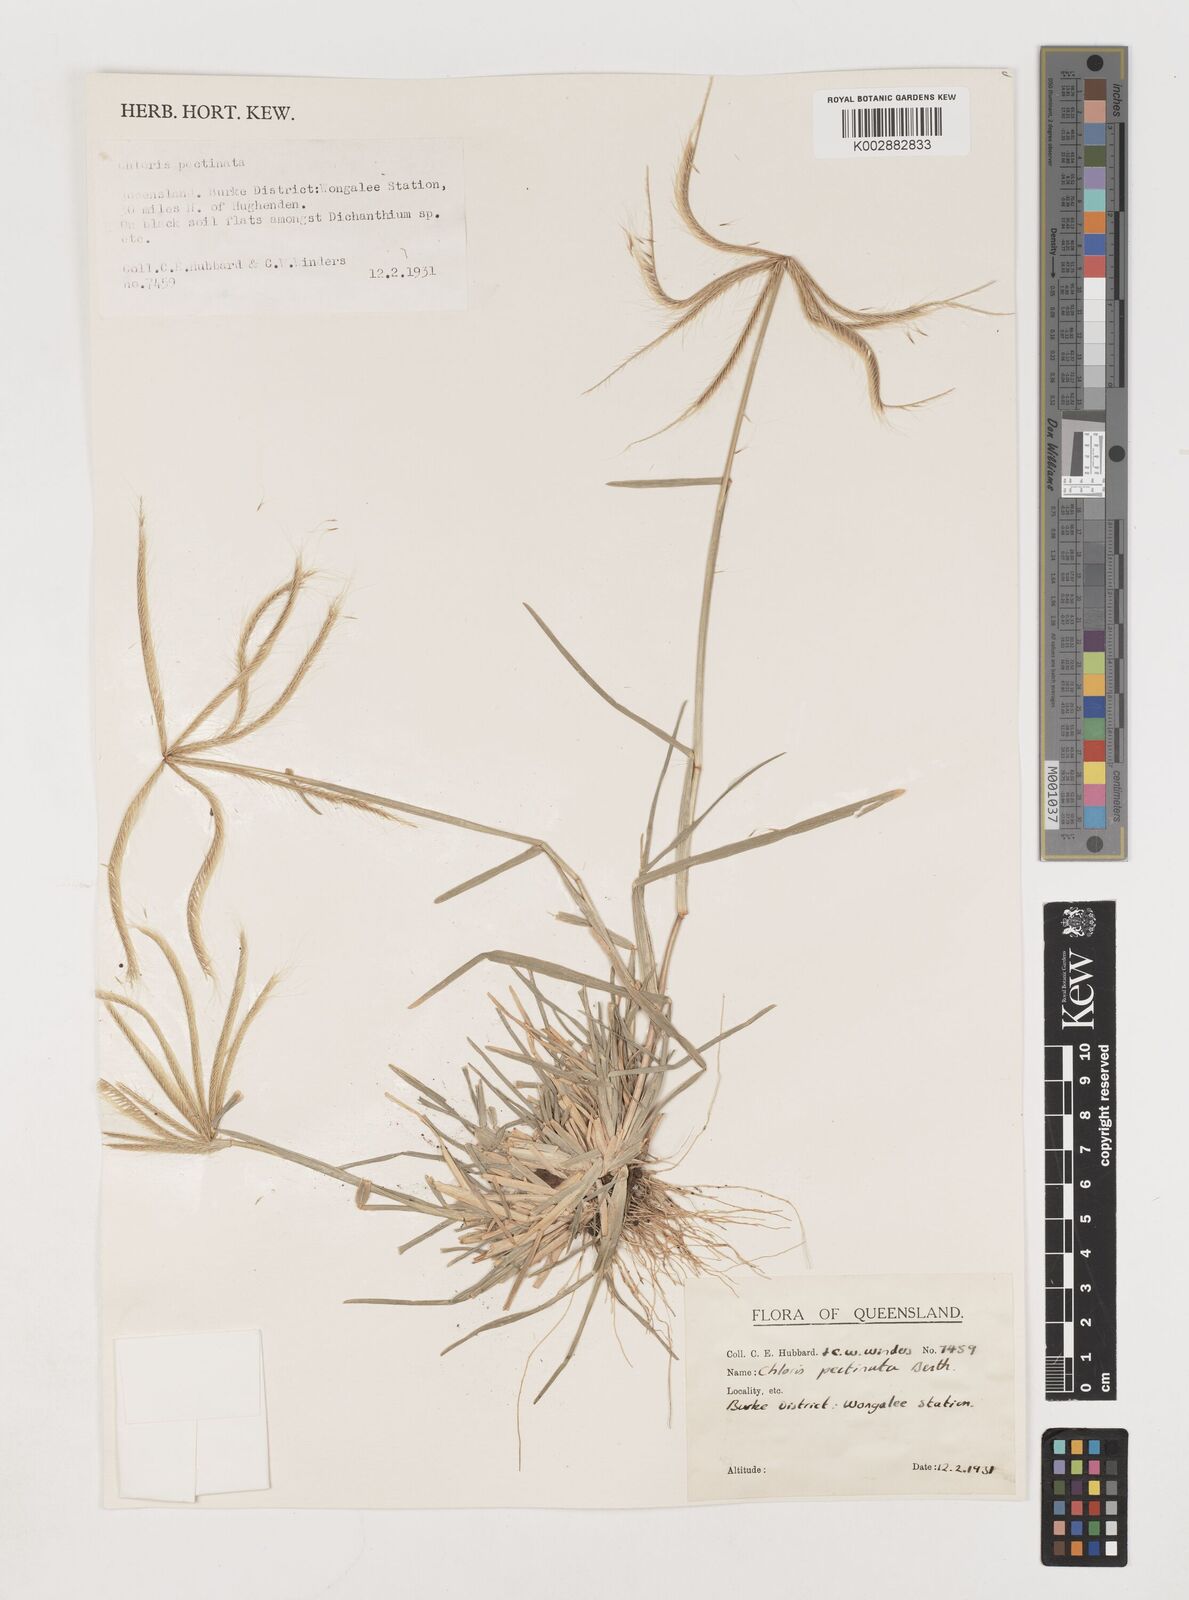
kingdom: Plantae
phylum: Tracheophyta
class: Liliopsida
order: Poales
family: Poaceae
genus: Chloris
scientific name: Chloris pectinata
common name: Comb windmill grass
